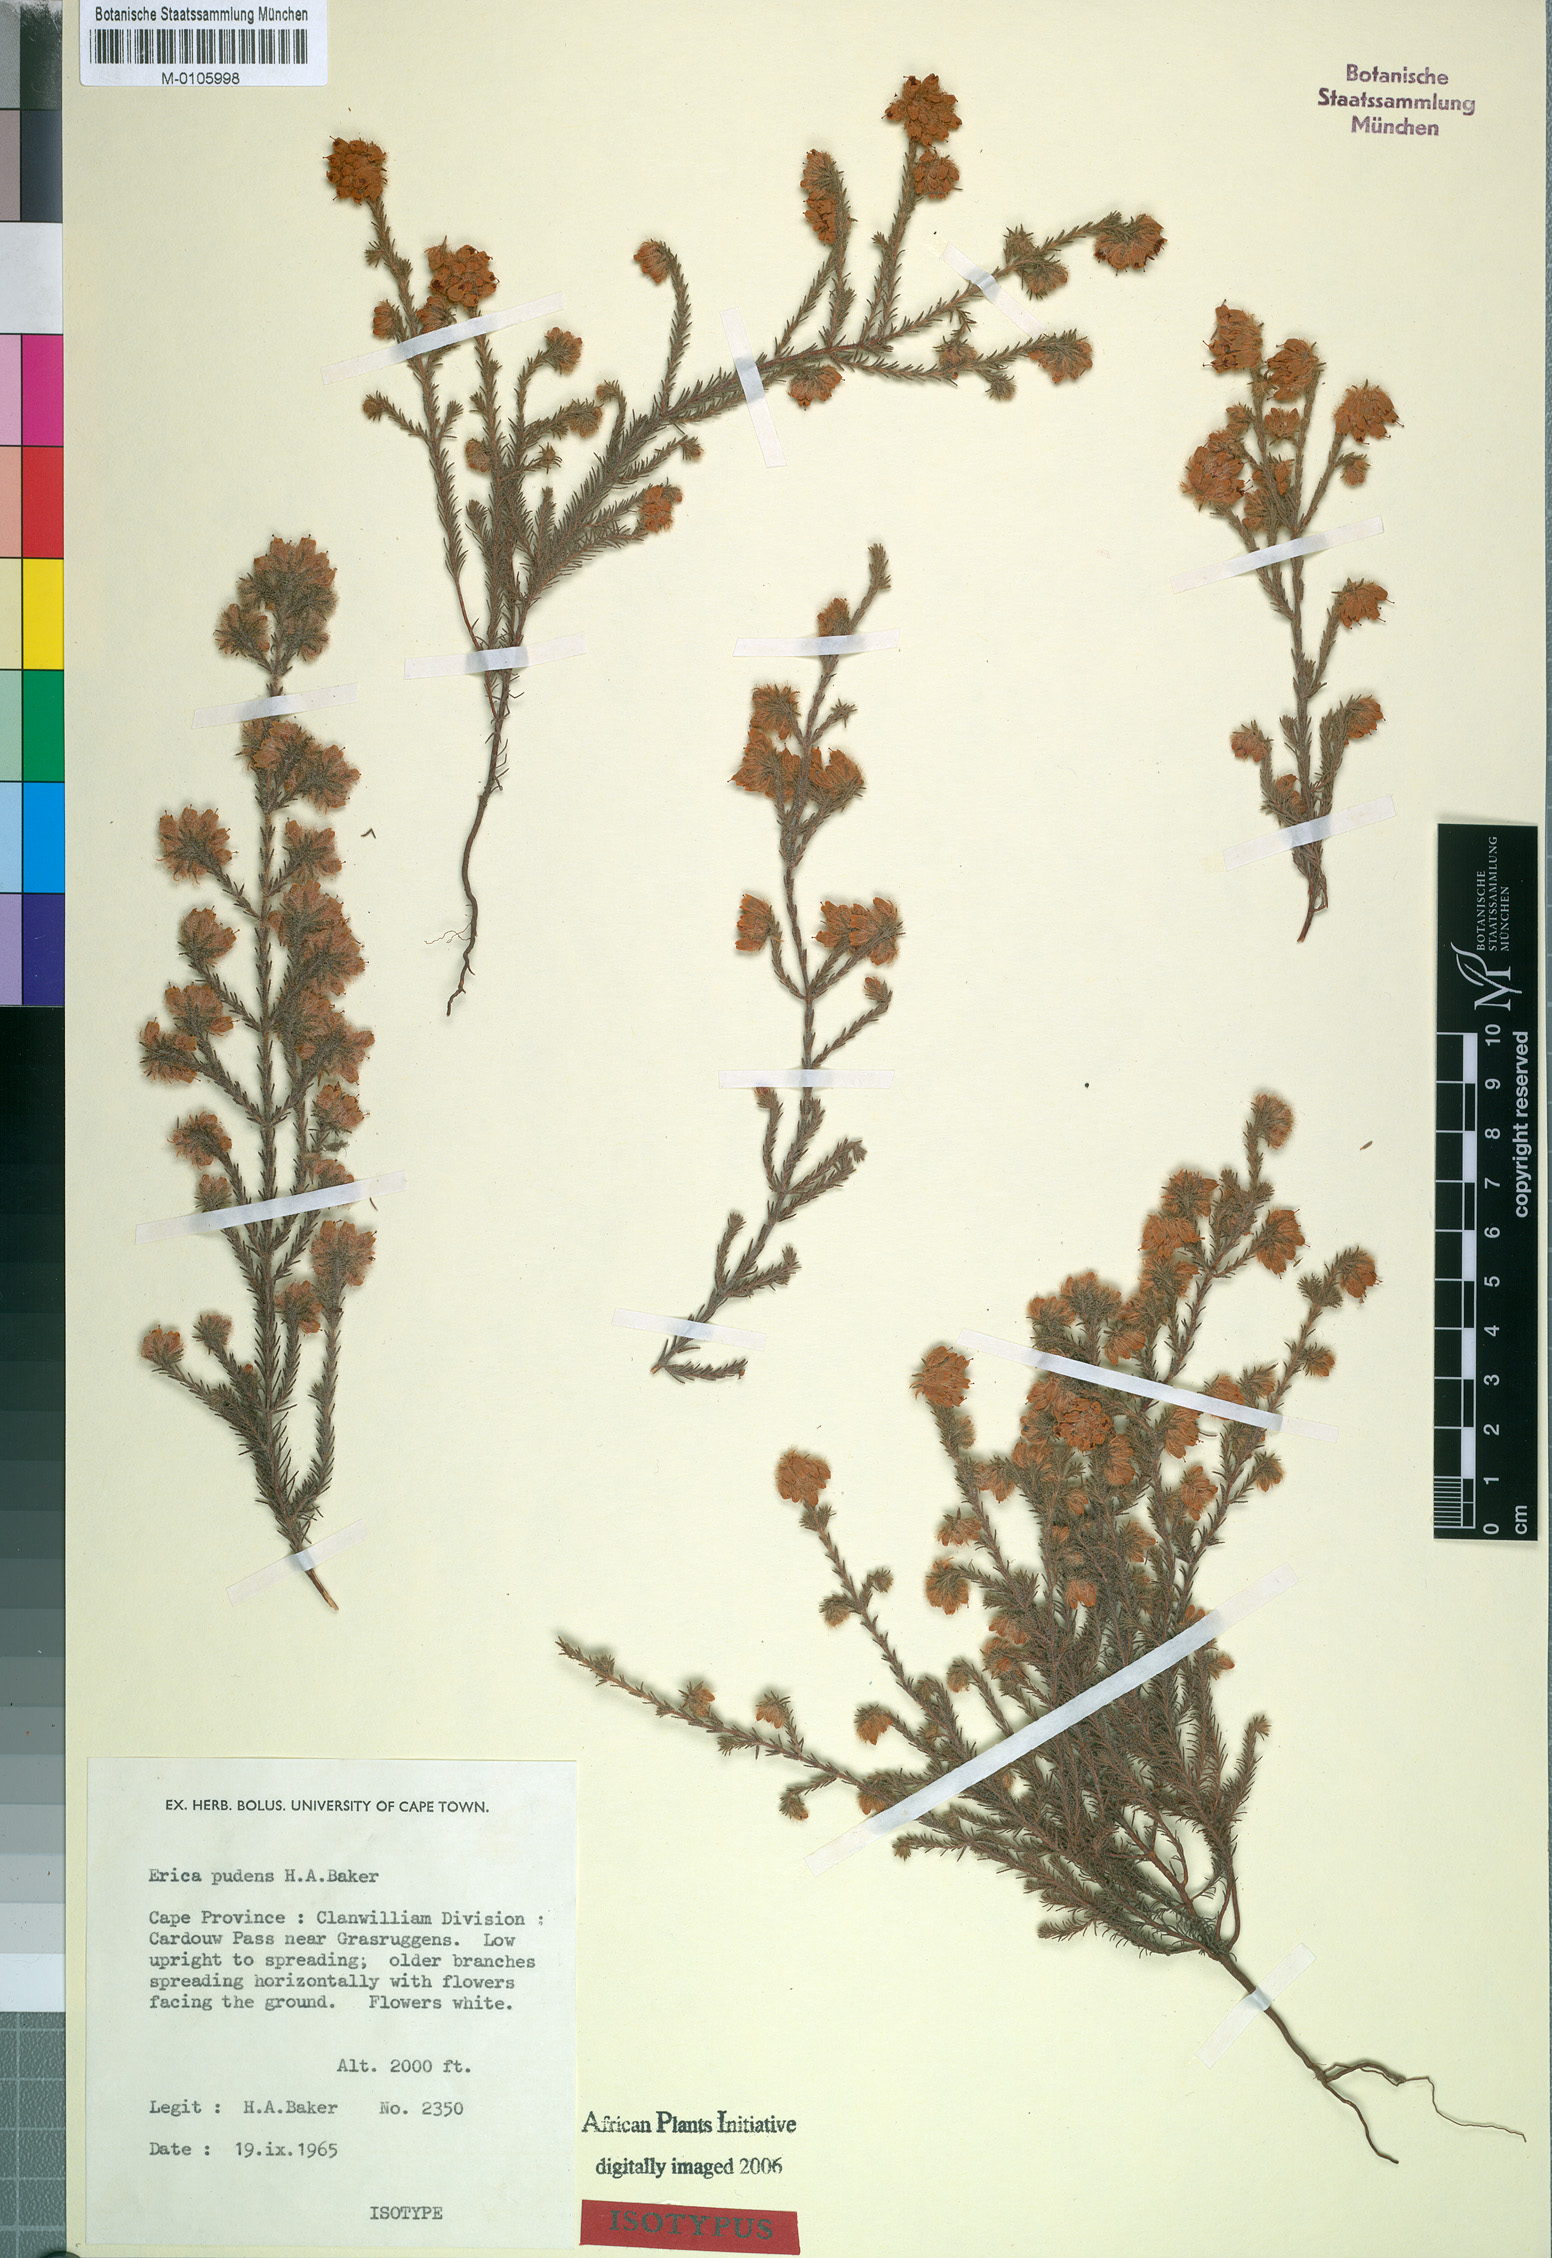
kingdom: Plantae
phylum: Tracheophyta
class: Magnoliopsida
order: Ericales
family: Ericaceae
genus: Erica
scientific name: Erica pudens
